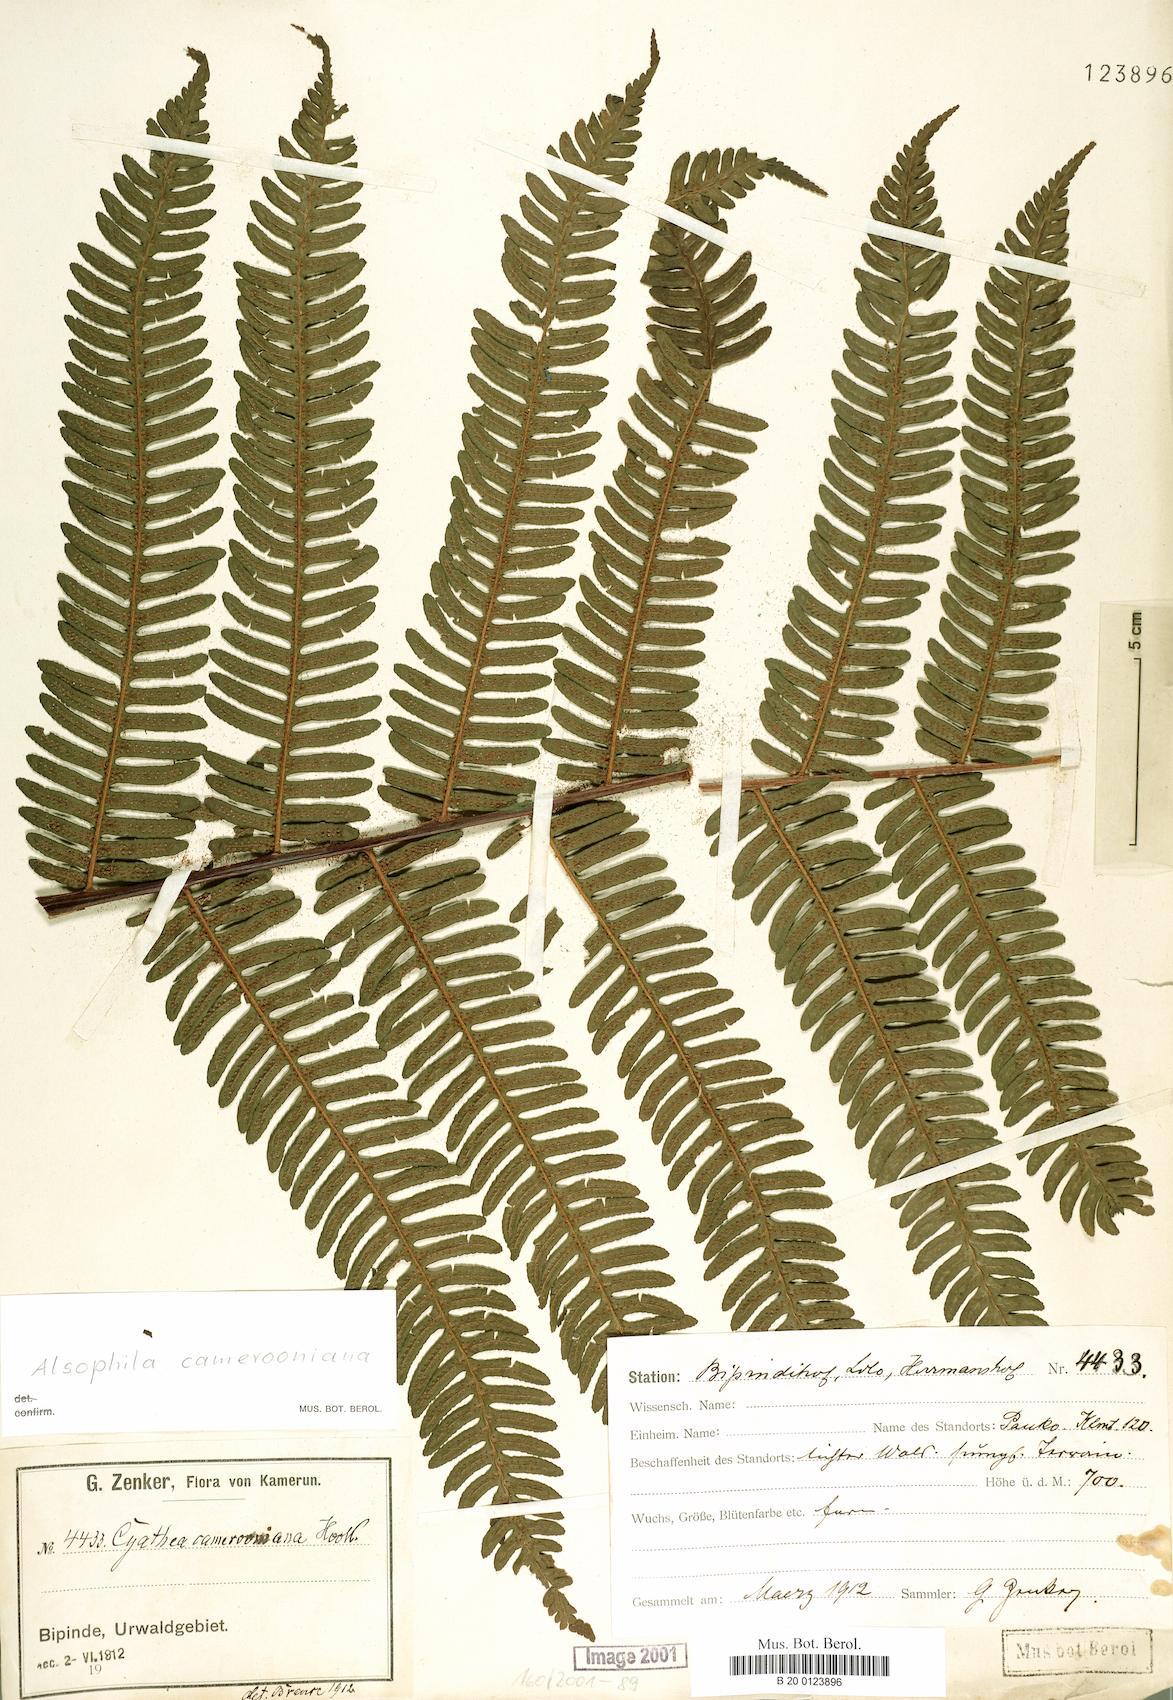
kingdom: Plantae
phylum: Tracheophyta
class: Polypodiopsida
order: Cyatheales
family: Cyatheaceae
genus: Alsophila
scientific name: Alsophila camerooniana
